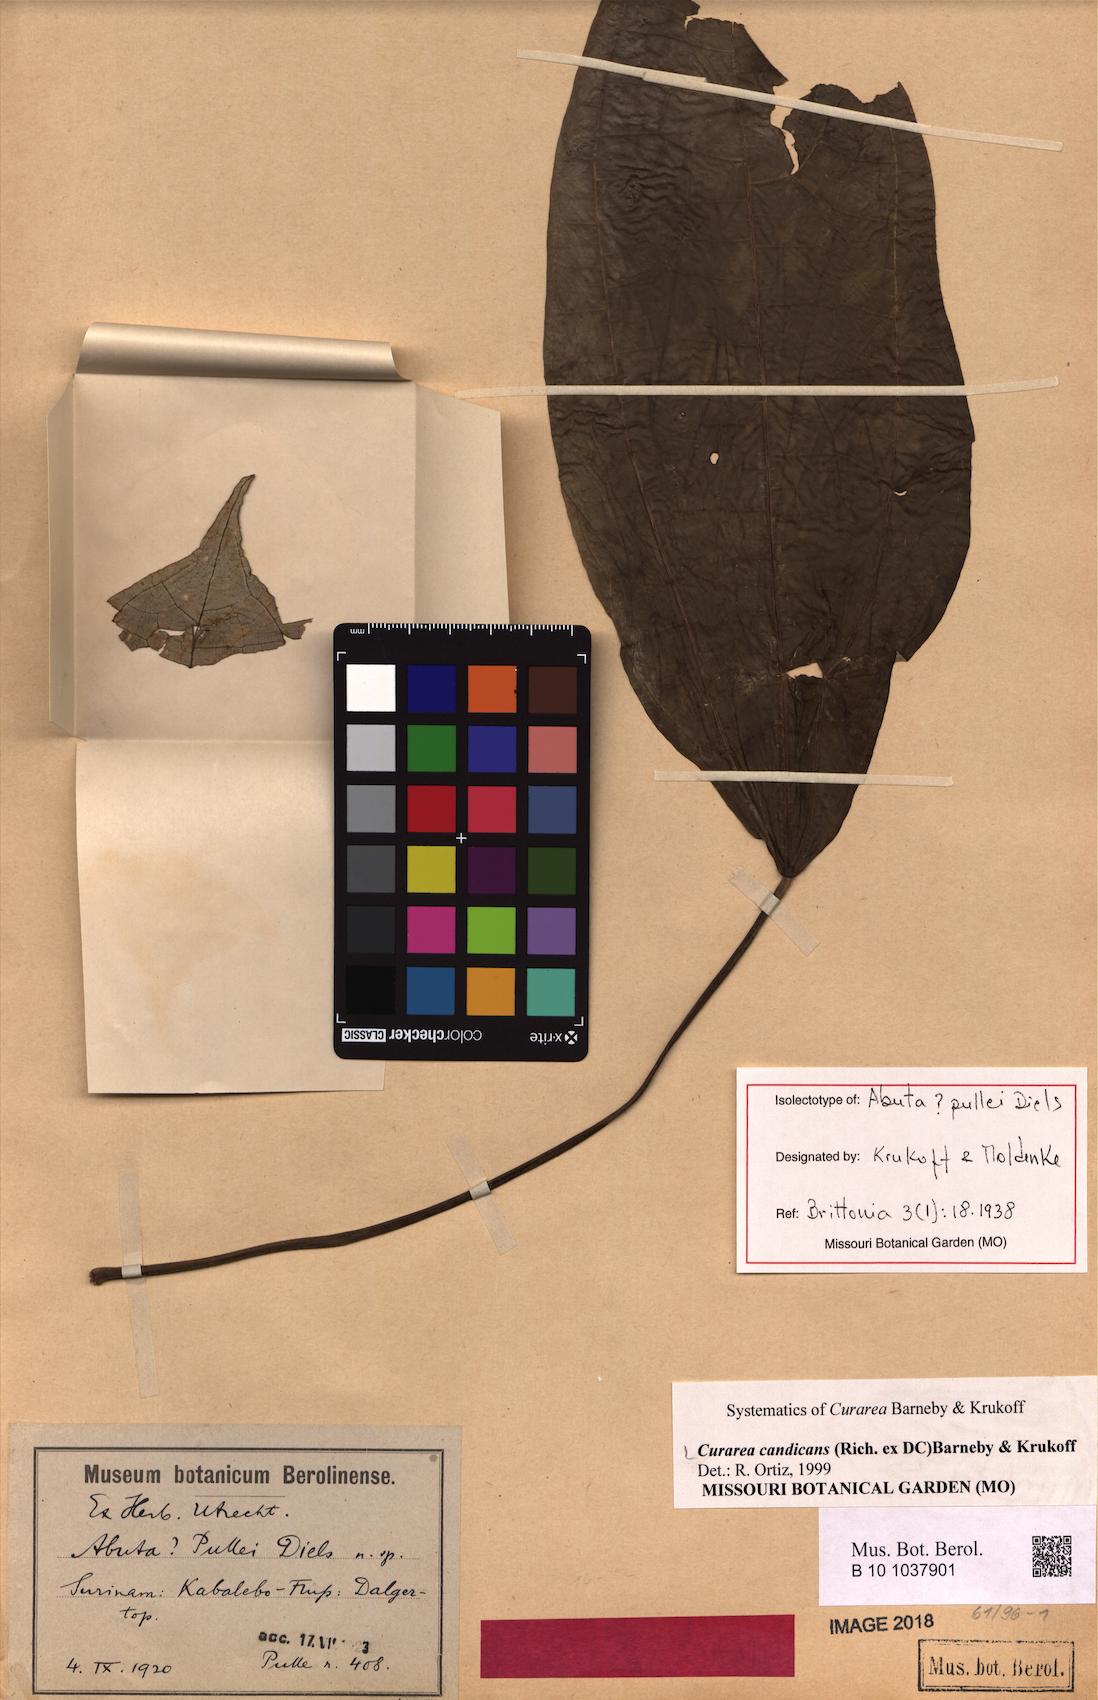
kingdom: Plantae
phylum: Tracheophyta
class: Magnoliopsida
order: Ranunculales
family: Menispermaceae
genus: Curarea
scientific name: Curarea candicans
